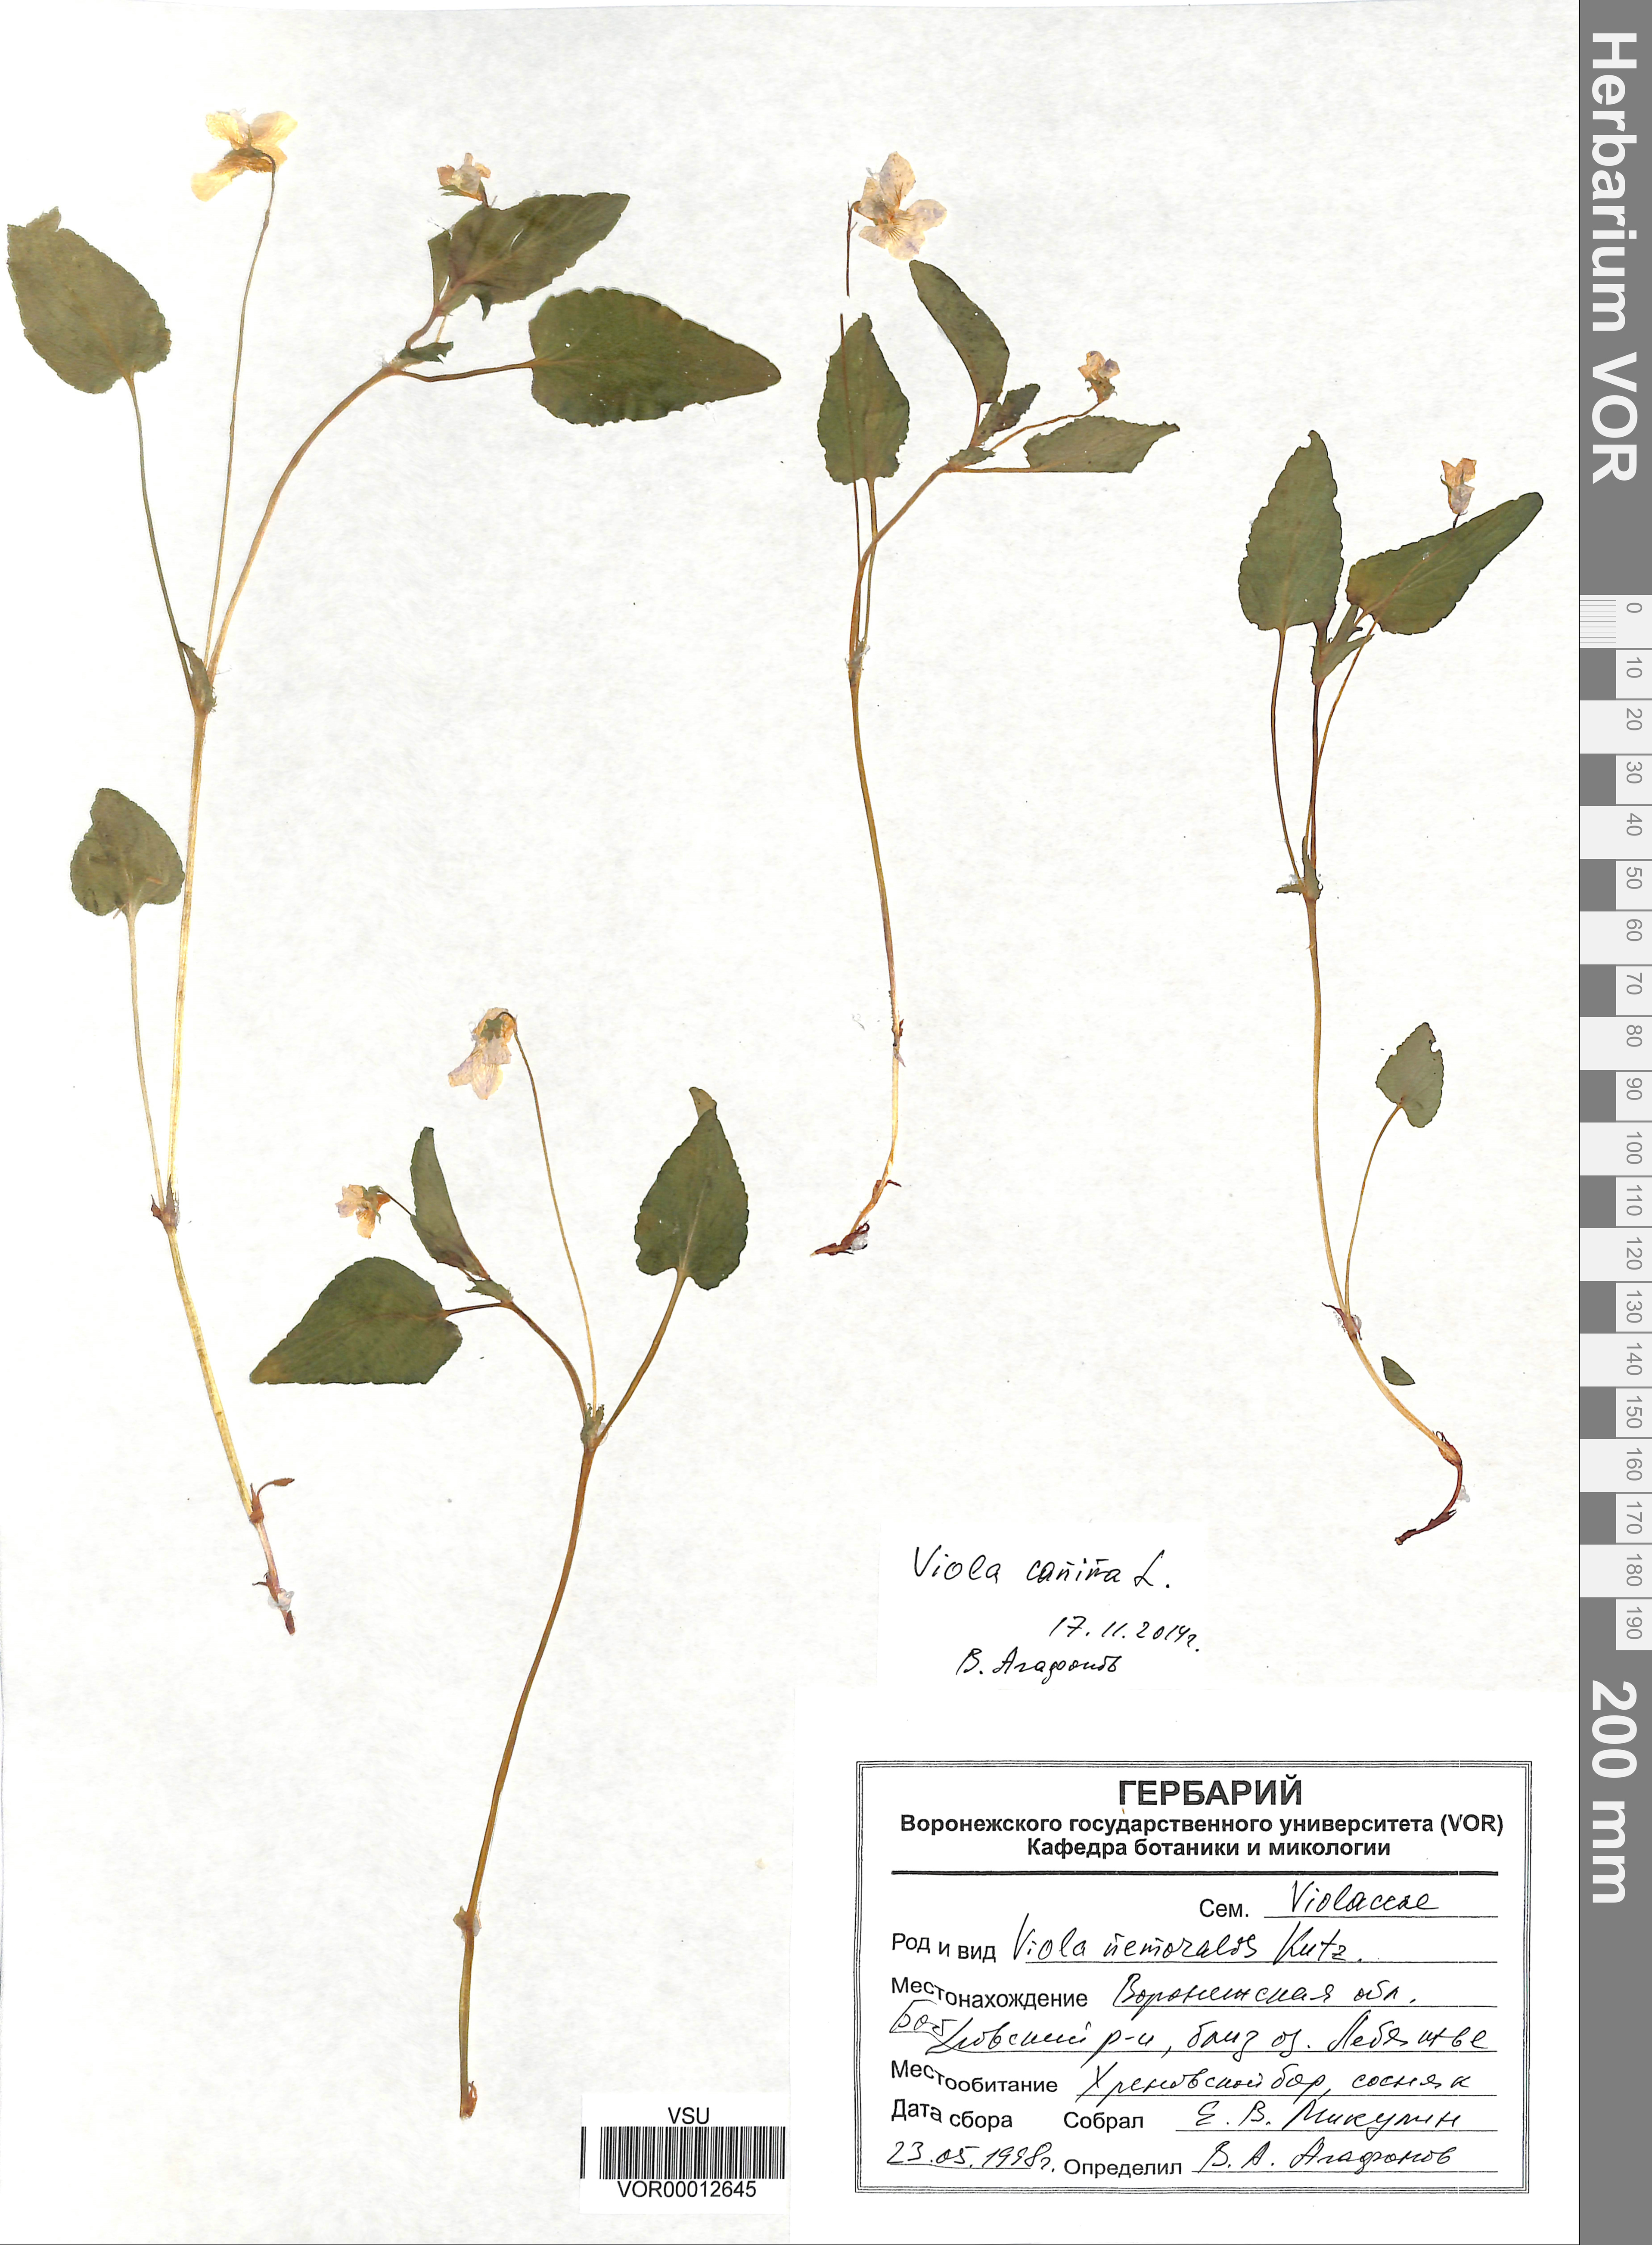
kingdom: Plantae
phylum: Tracheophyta
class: Magnoliopsida
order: Malpighiales
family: Violaceae
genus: Viola
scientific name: Viola canina
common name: Heath dog-violet
